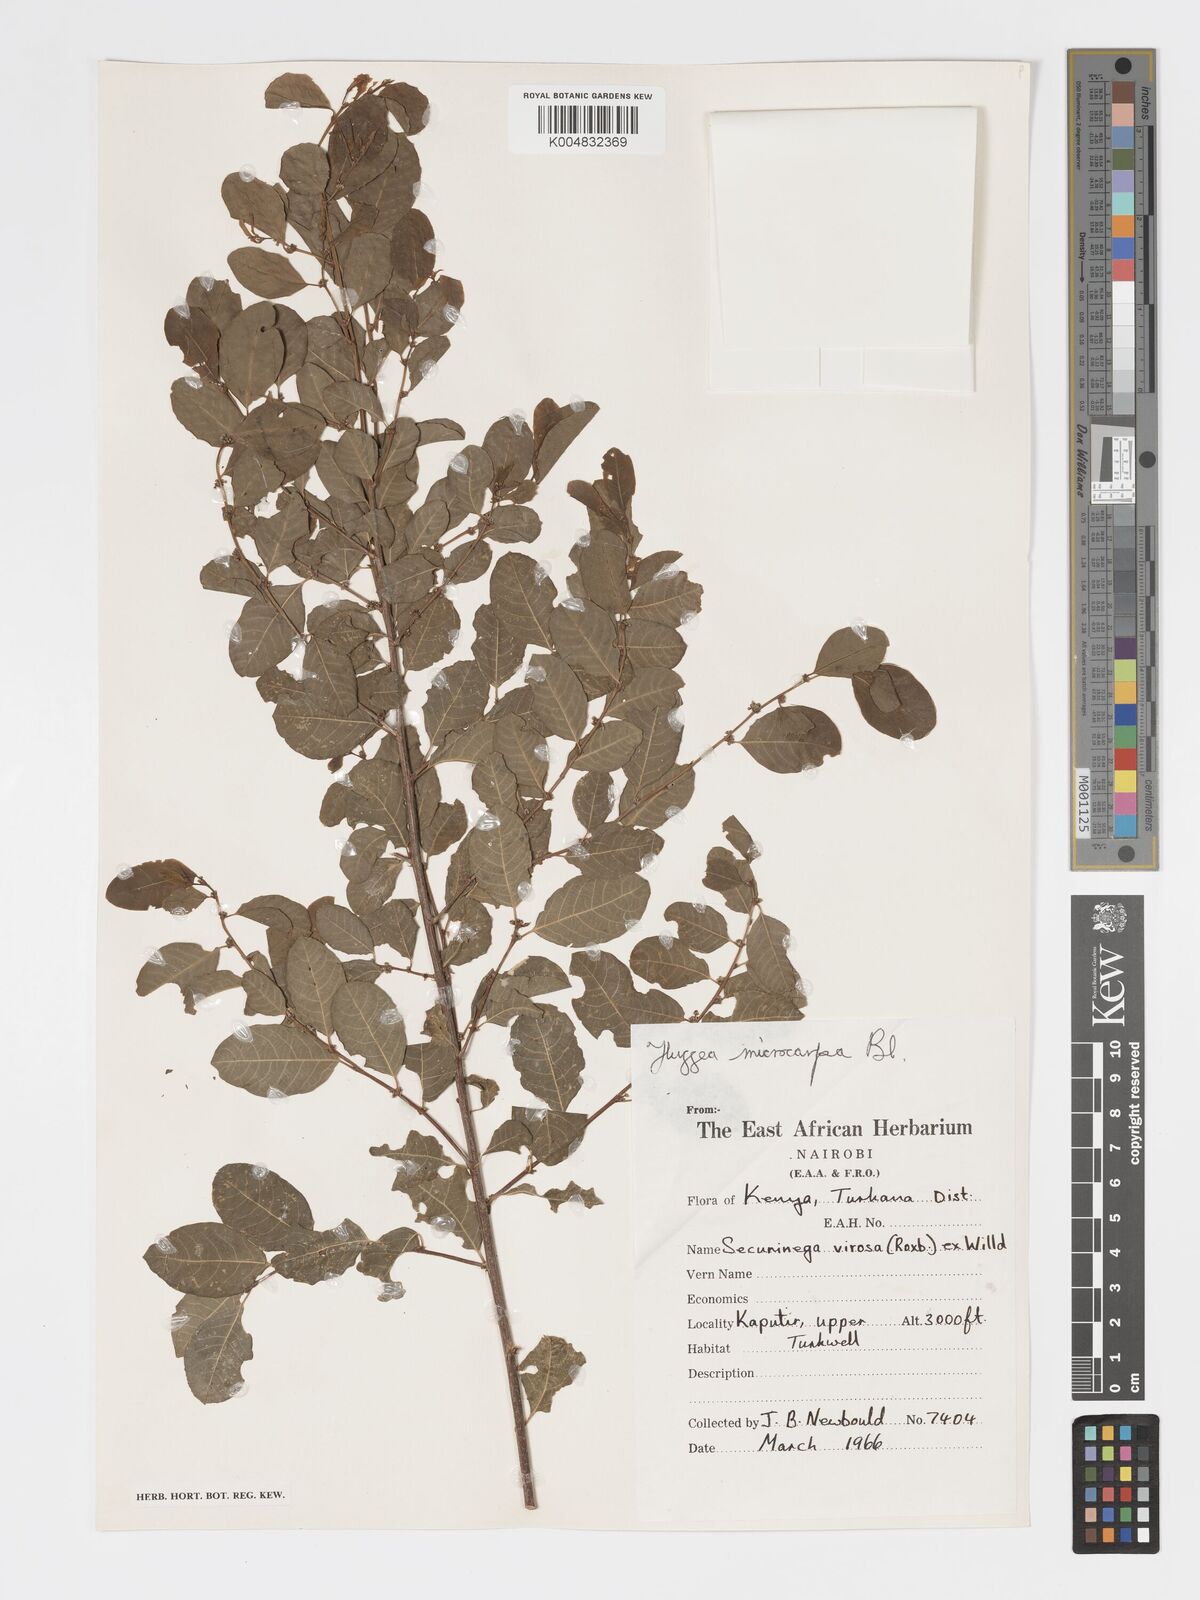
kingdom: Plantae
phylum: Tracheophyta
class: Magnoliopsida
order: Malpighiales
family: Phyllanthaceae
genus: Flueggea
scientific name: Flueggea virosa
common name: Common bushweed
